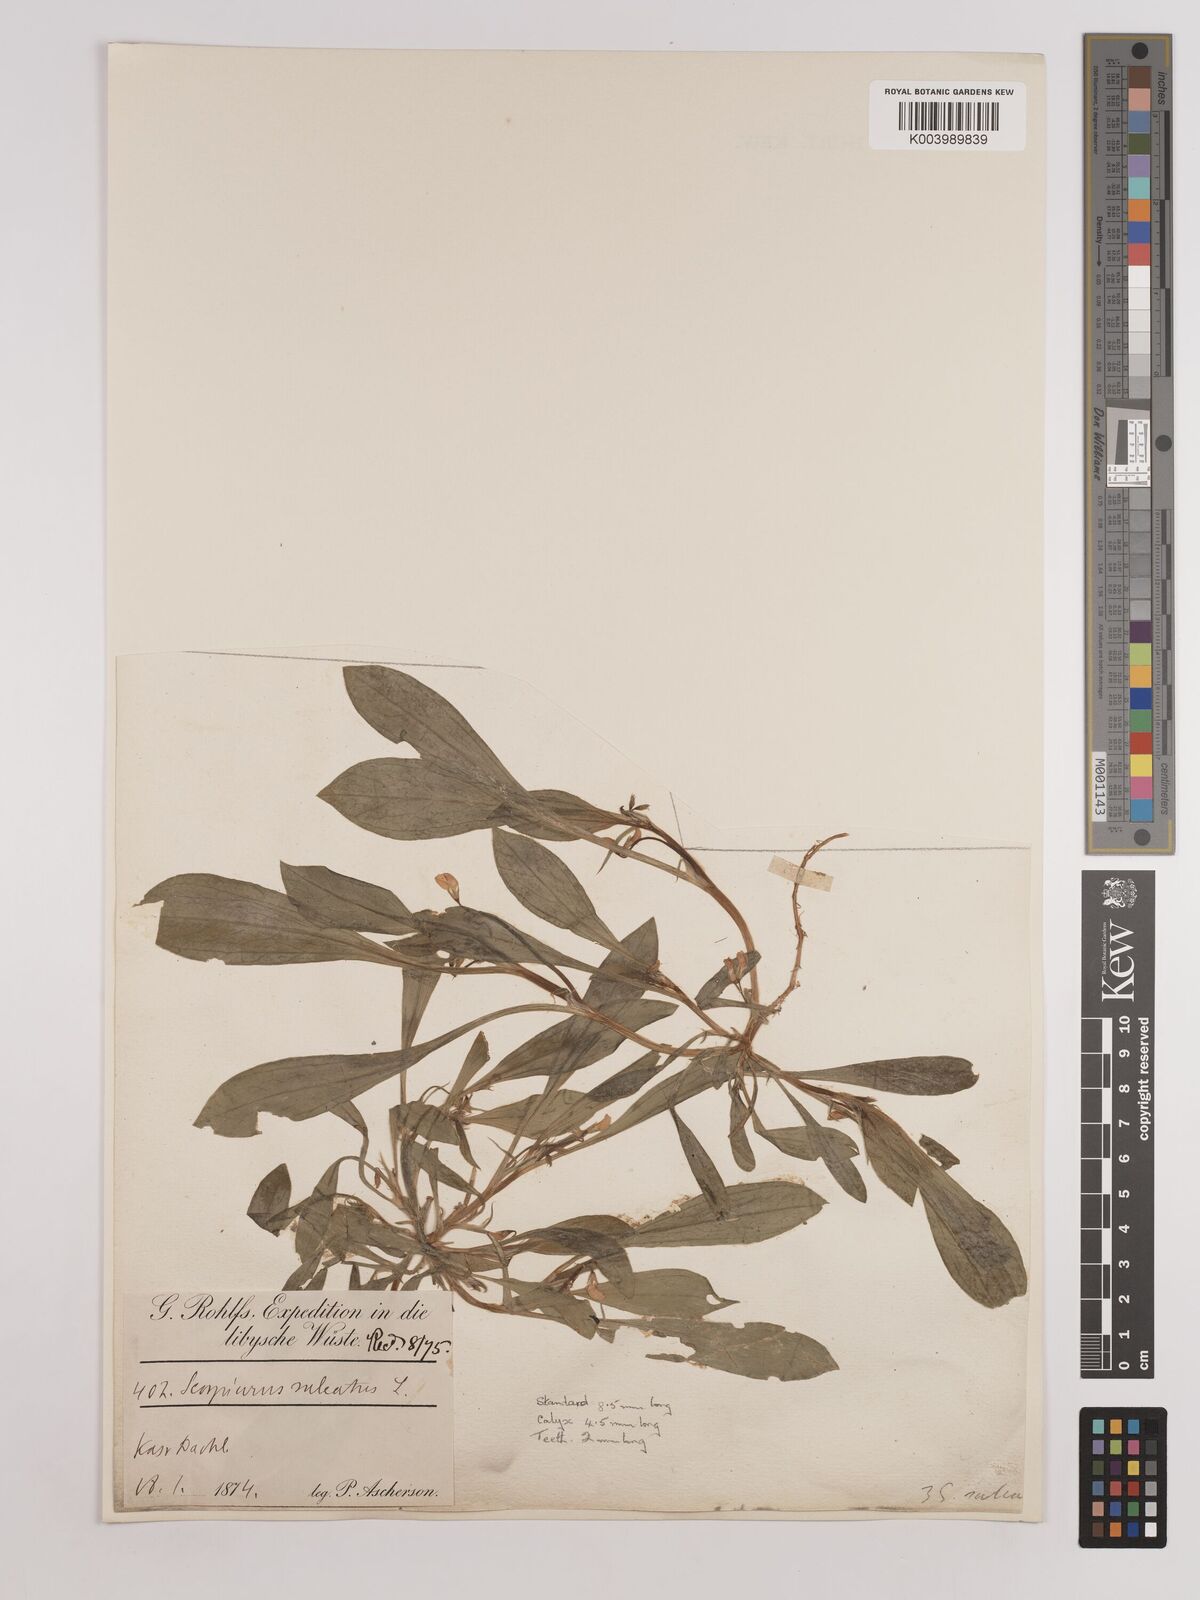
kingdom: Plantae
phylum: Tracheophyta
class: Magnoliopsida
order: Fabales
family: Fabaceae
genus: Scorpiurus
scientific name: Scorpiurus muricatus
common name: Caterpillar-plant
